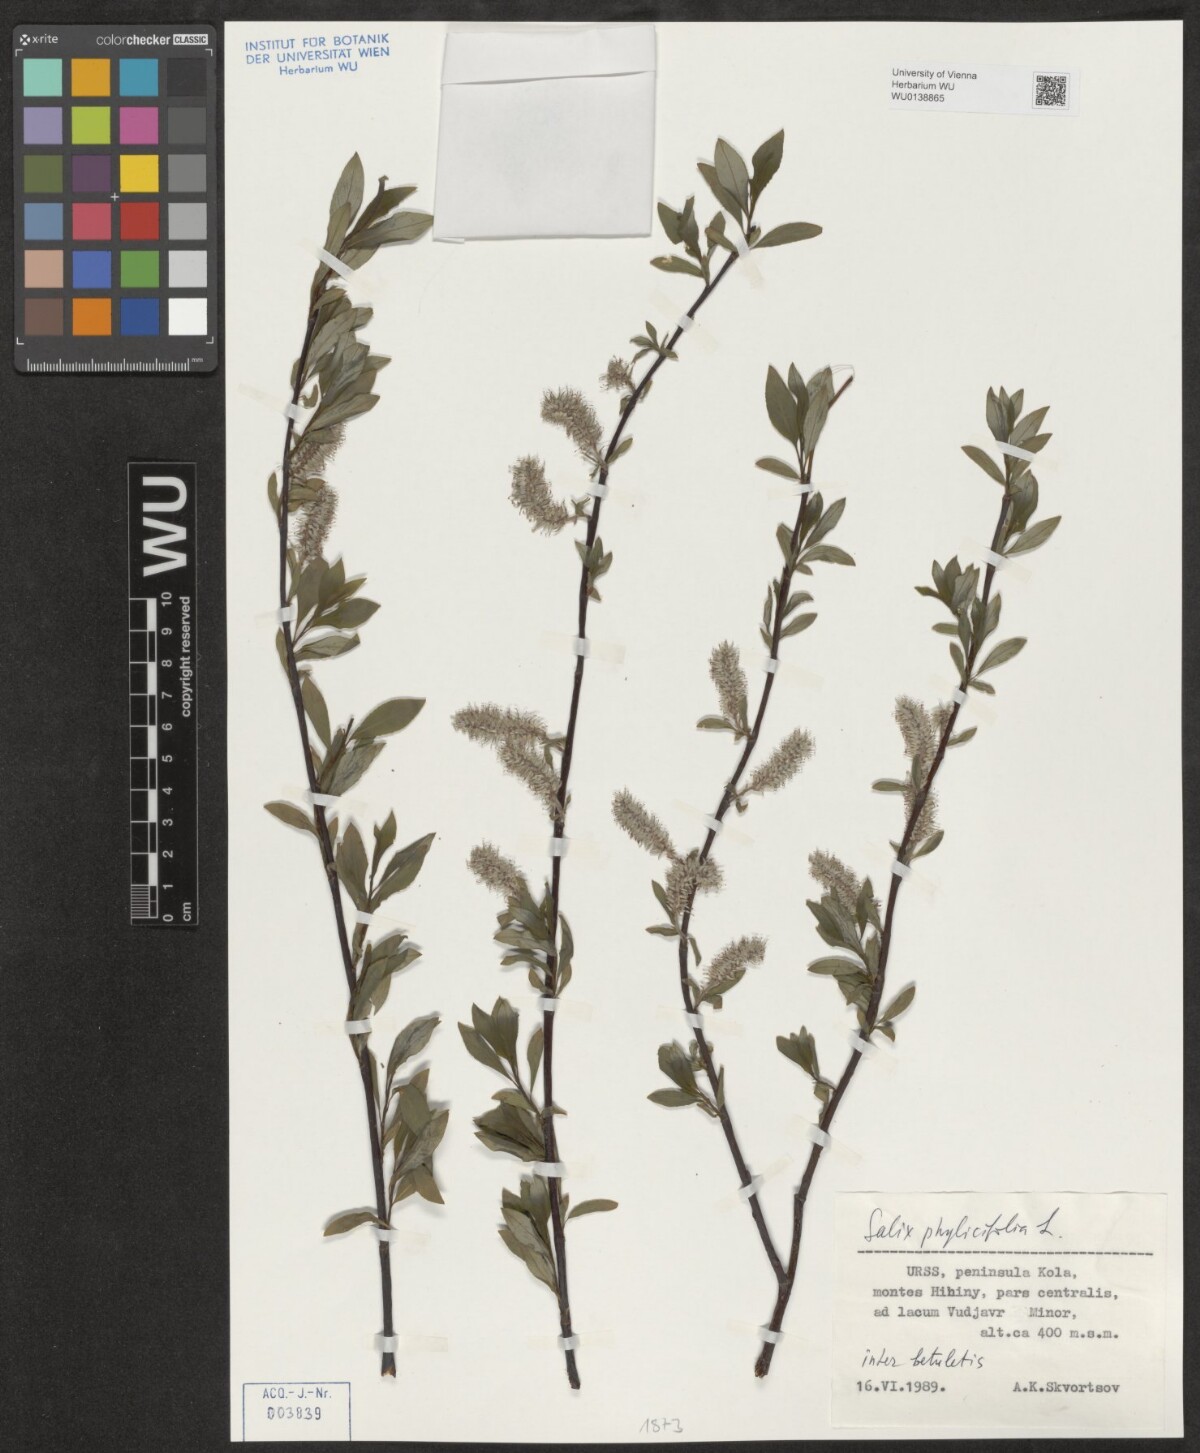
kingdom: Plantae
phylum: Tracheophyta
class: Magnoliopsida
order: Malpighiales
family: Salicaceae
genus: Salix
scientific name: Salix phylicifolia
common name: Tea-leaved willow
